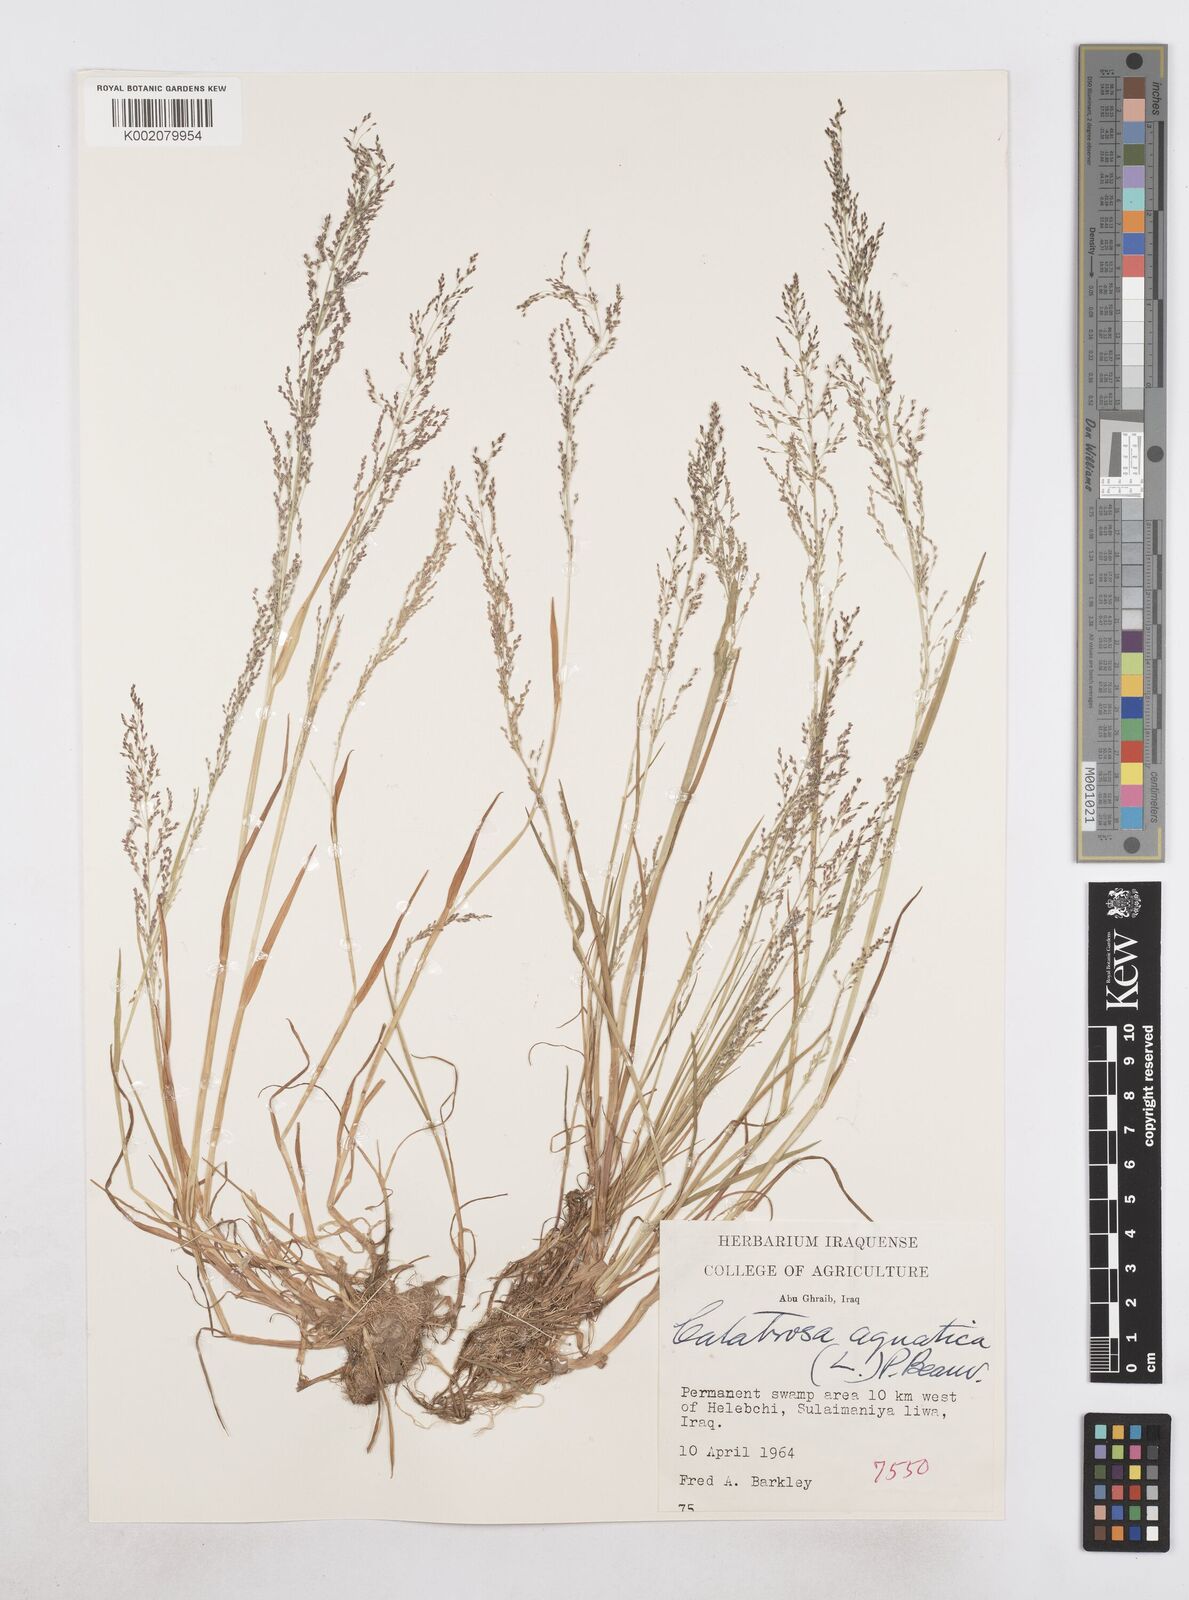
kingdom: Plantae
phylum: Tracheophyta
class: Liliopsida
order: Poales
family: Poaceae
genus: Catabrosa
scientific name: Catabrosa aquatica
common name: Whorl-grass
